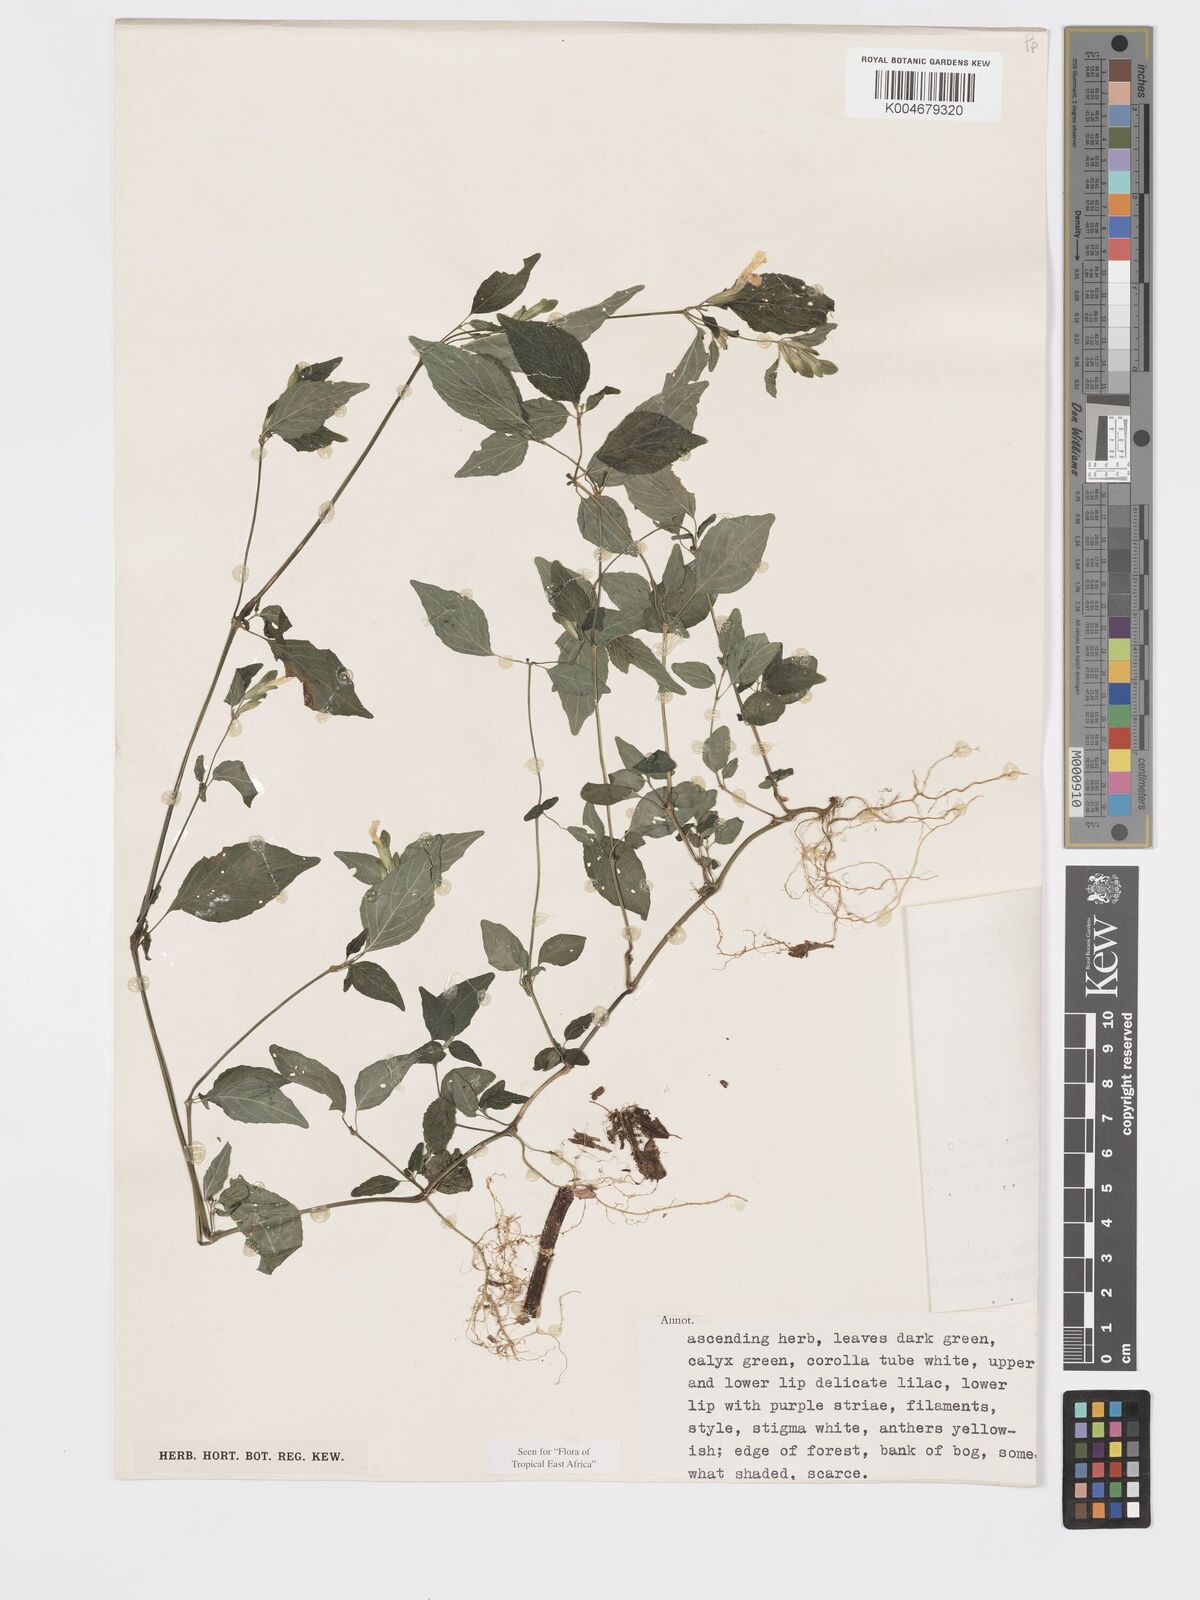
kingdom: Plantae
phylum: Tracheophyta
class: Magnoliopsida
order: Lamiales
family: Acanthaceae
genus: Hypoestes
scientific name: Hypoestes triflora
